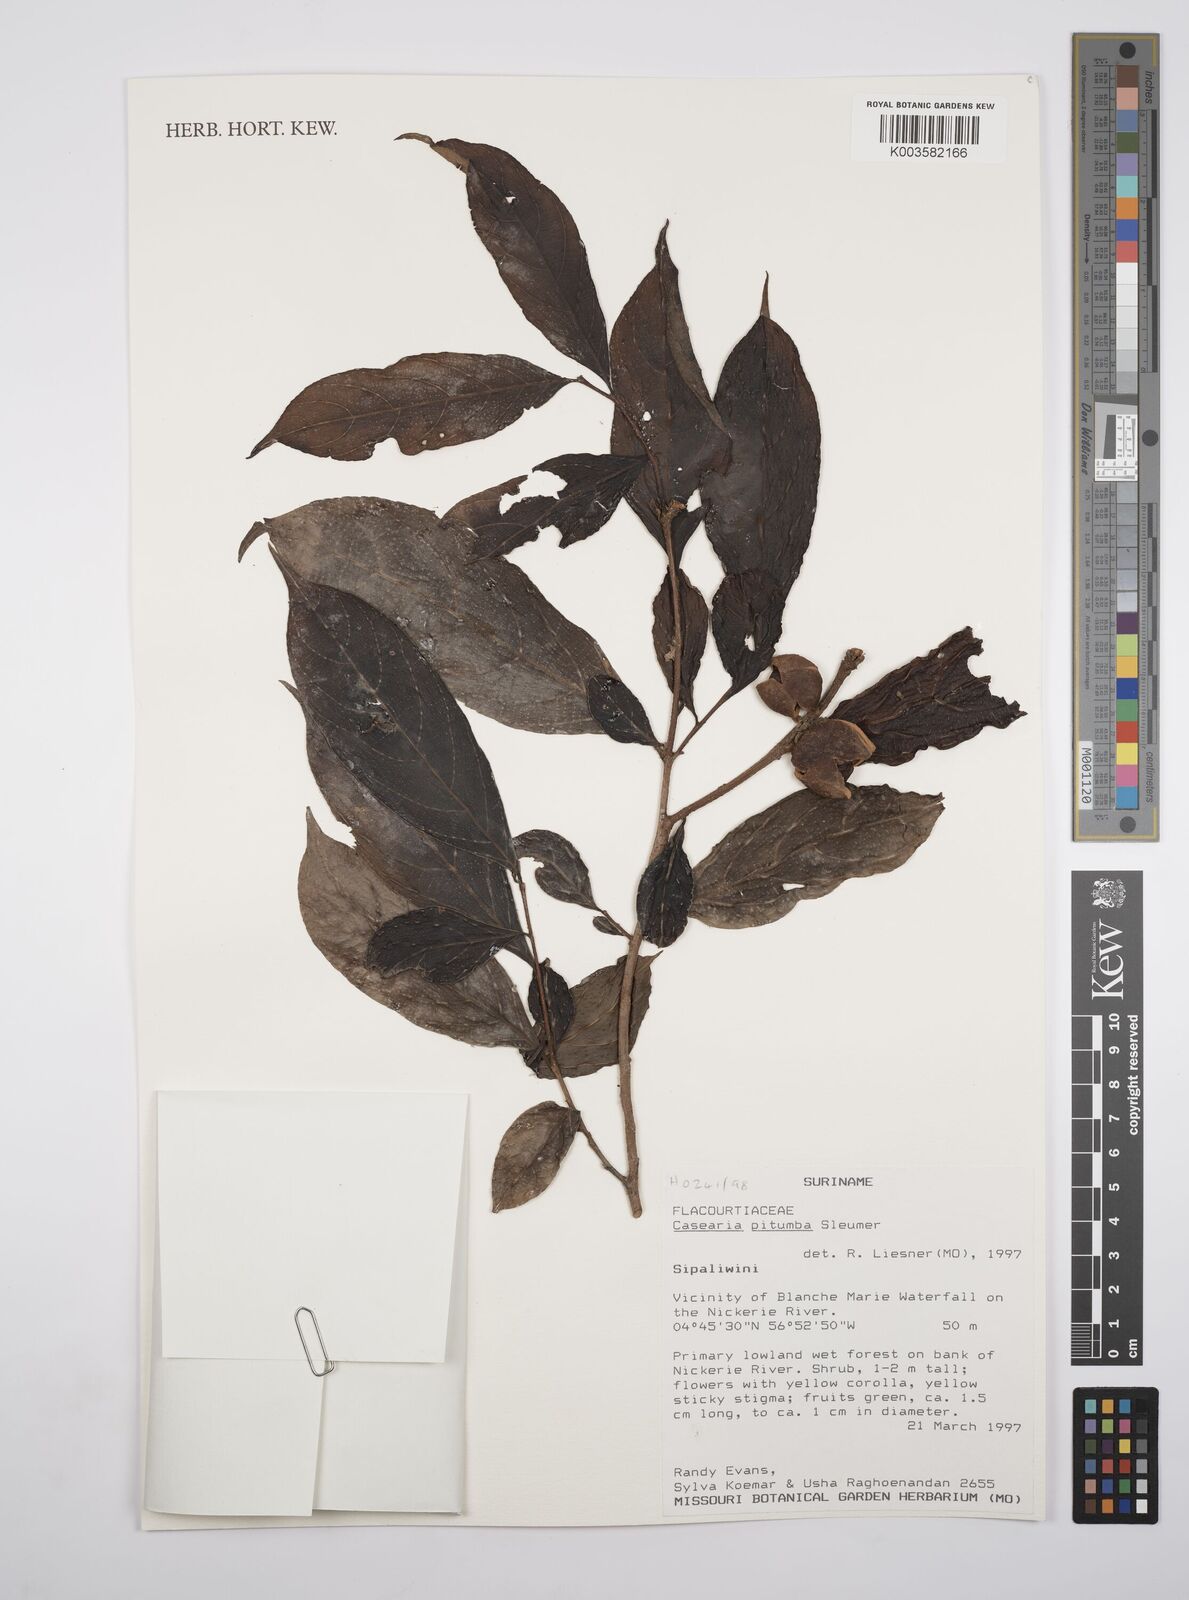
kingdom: Plantae
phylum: Tracheophyta
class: Magnoliopsida
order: Malpighiales
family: Salicaceae
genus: Casearia
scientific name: Casearia pitumba
